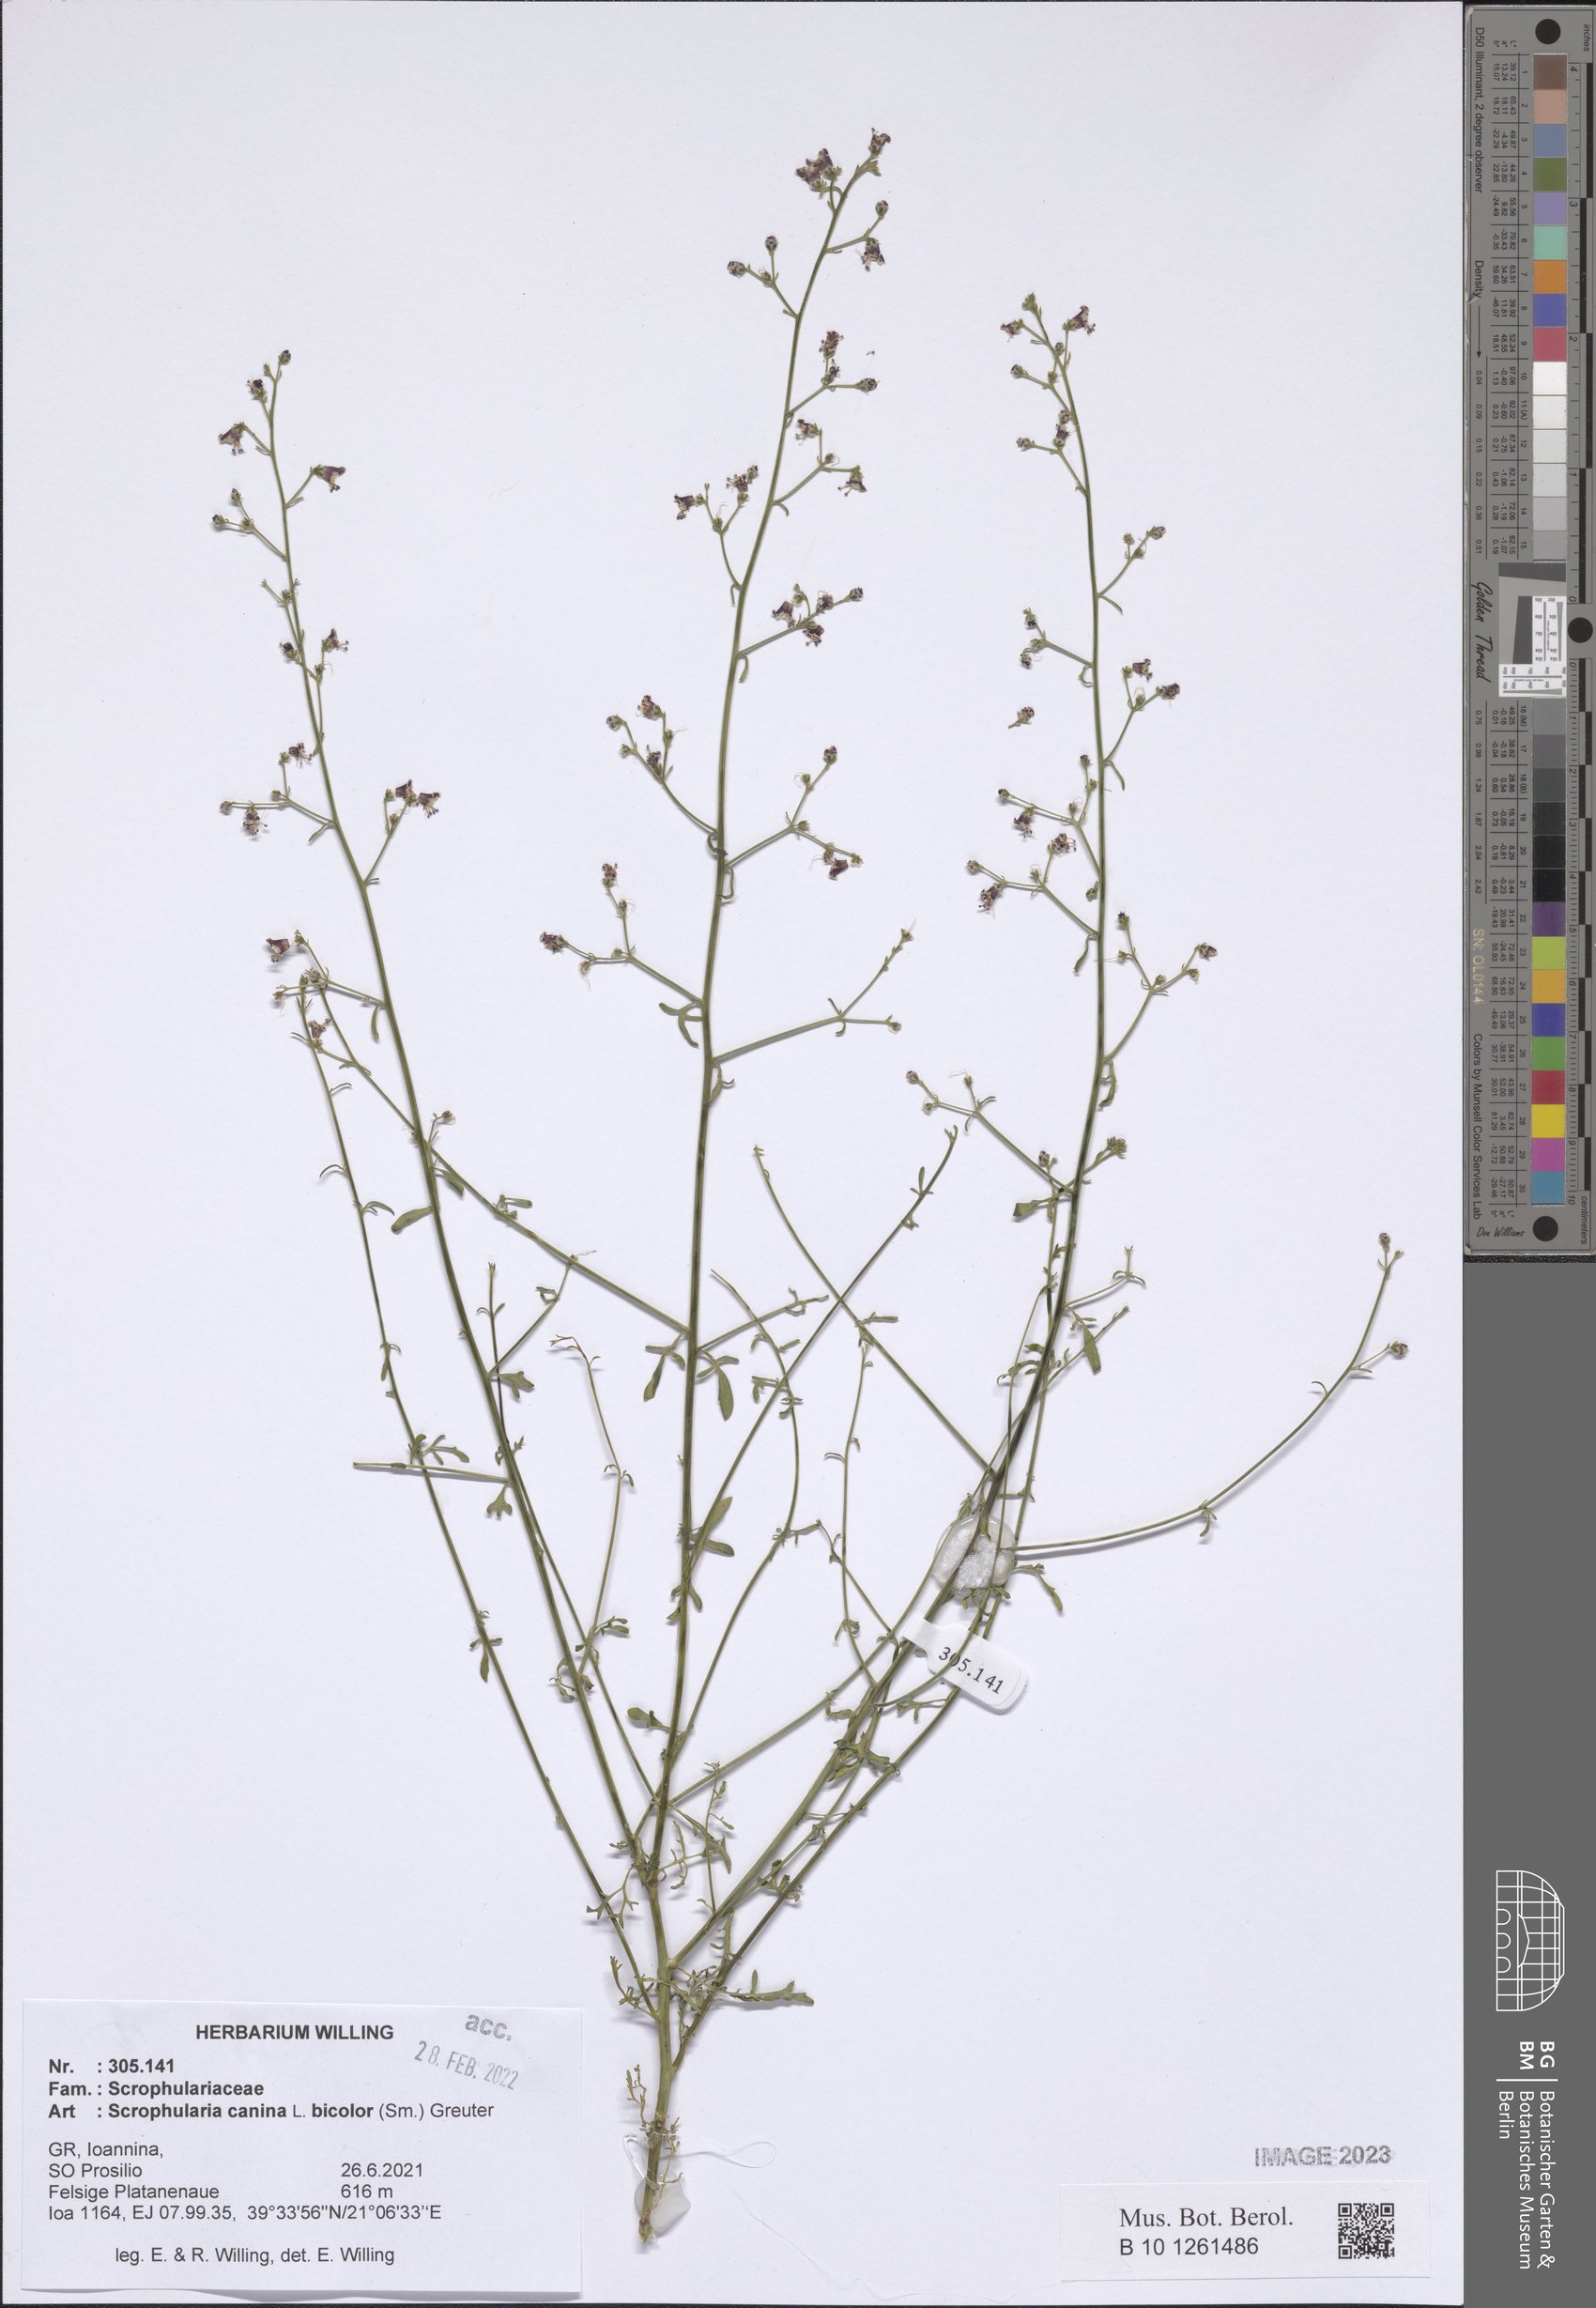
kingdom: Plantae
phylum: Tracheophyta
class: Magnoliopsida
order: Lamiales
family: Scrophulariaceae
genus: Scrophularia
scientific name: Scrophularia canina
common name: French figwort
